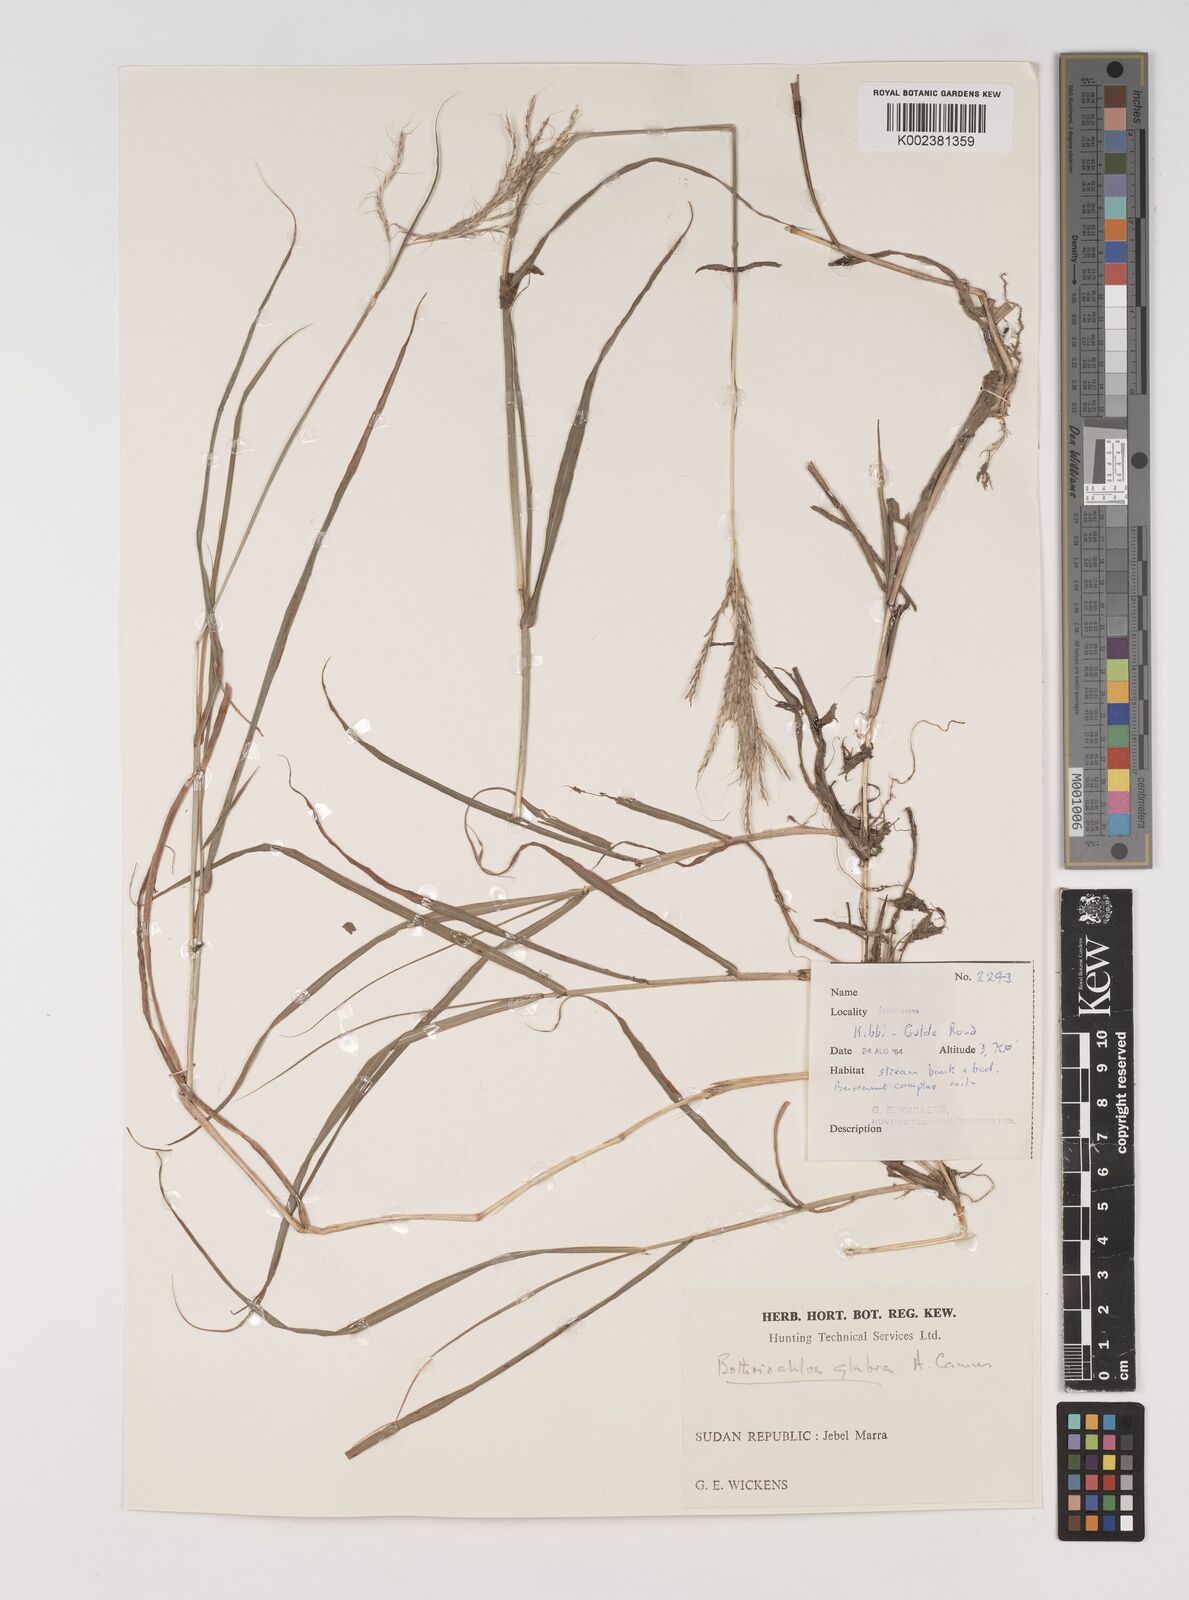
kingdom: Plantae
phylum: Tracheophyta
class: Liliopsida
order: Poales
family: Poaceae
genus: Bothriochloa
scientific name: Bothriochloa bladhii
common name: Caucasian bluestem
